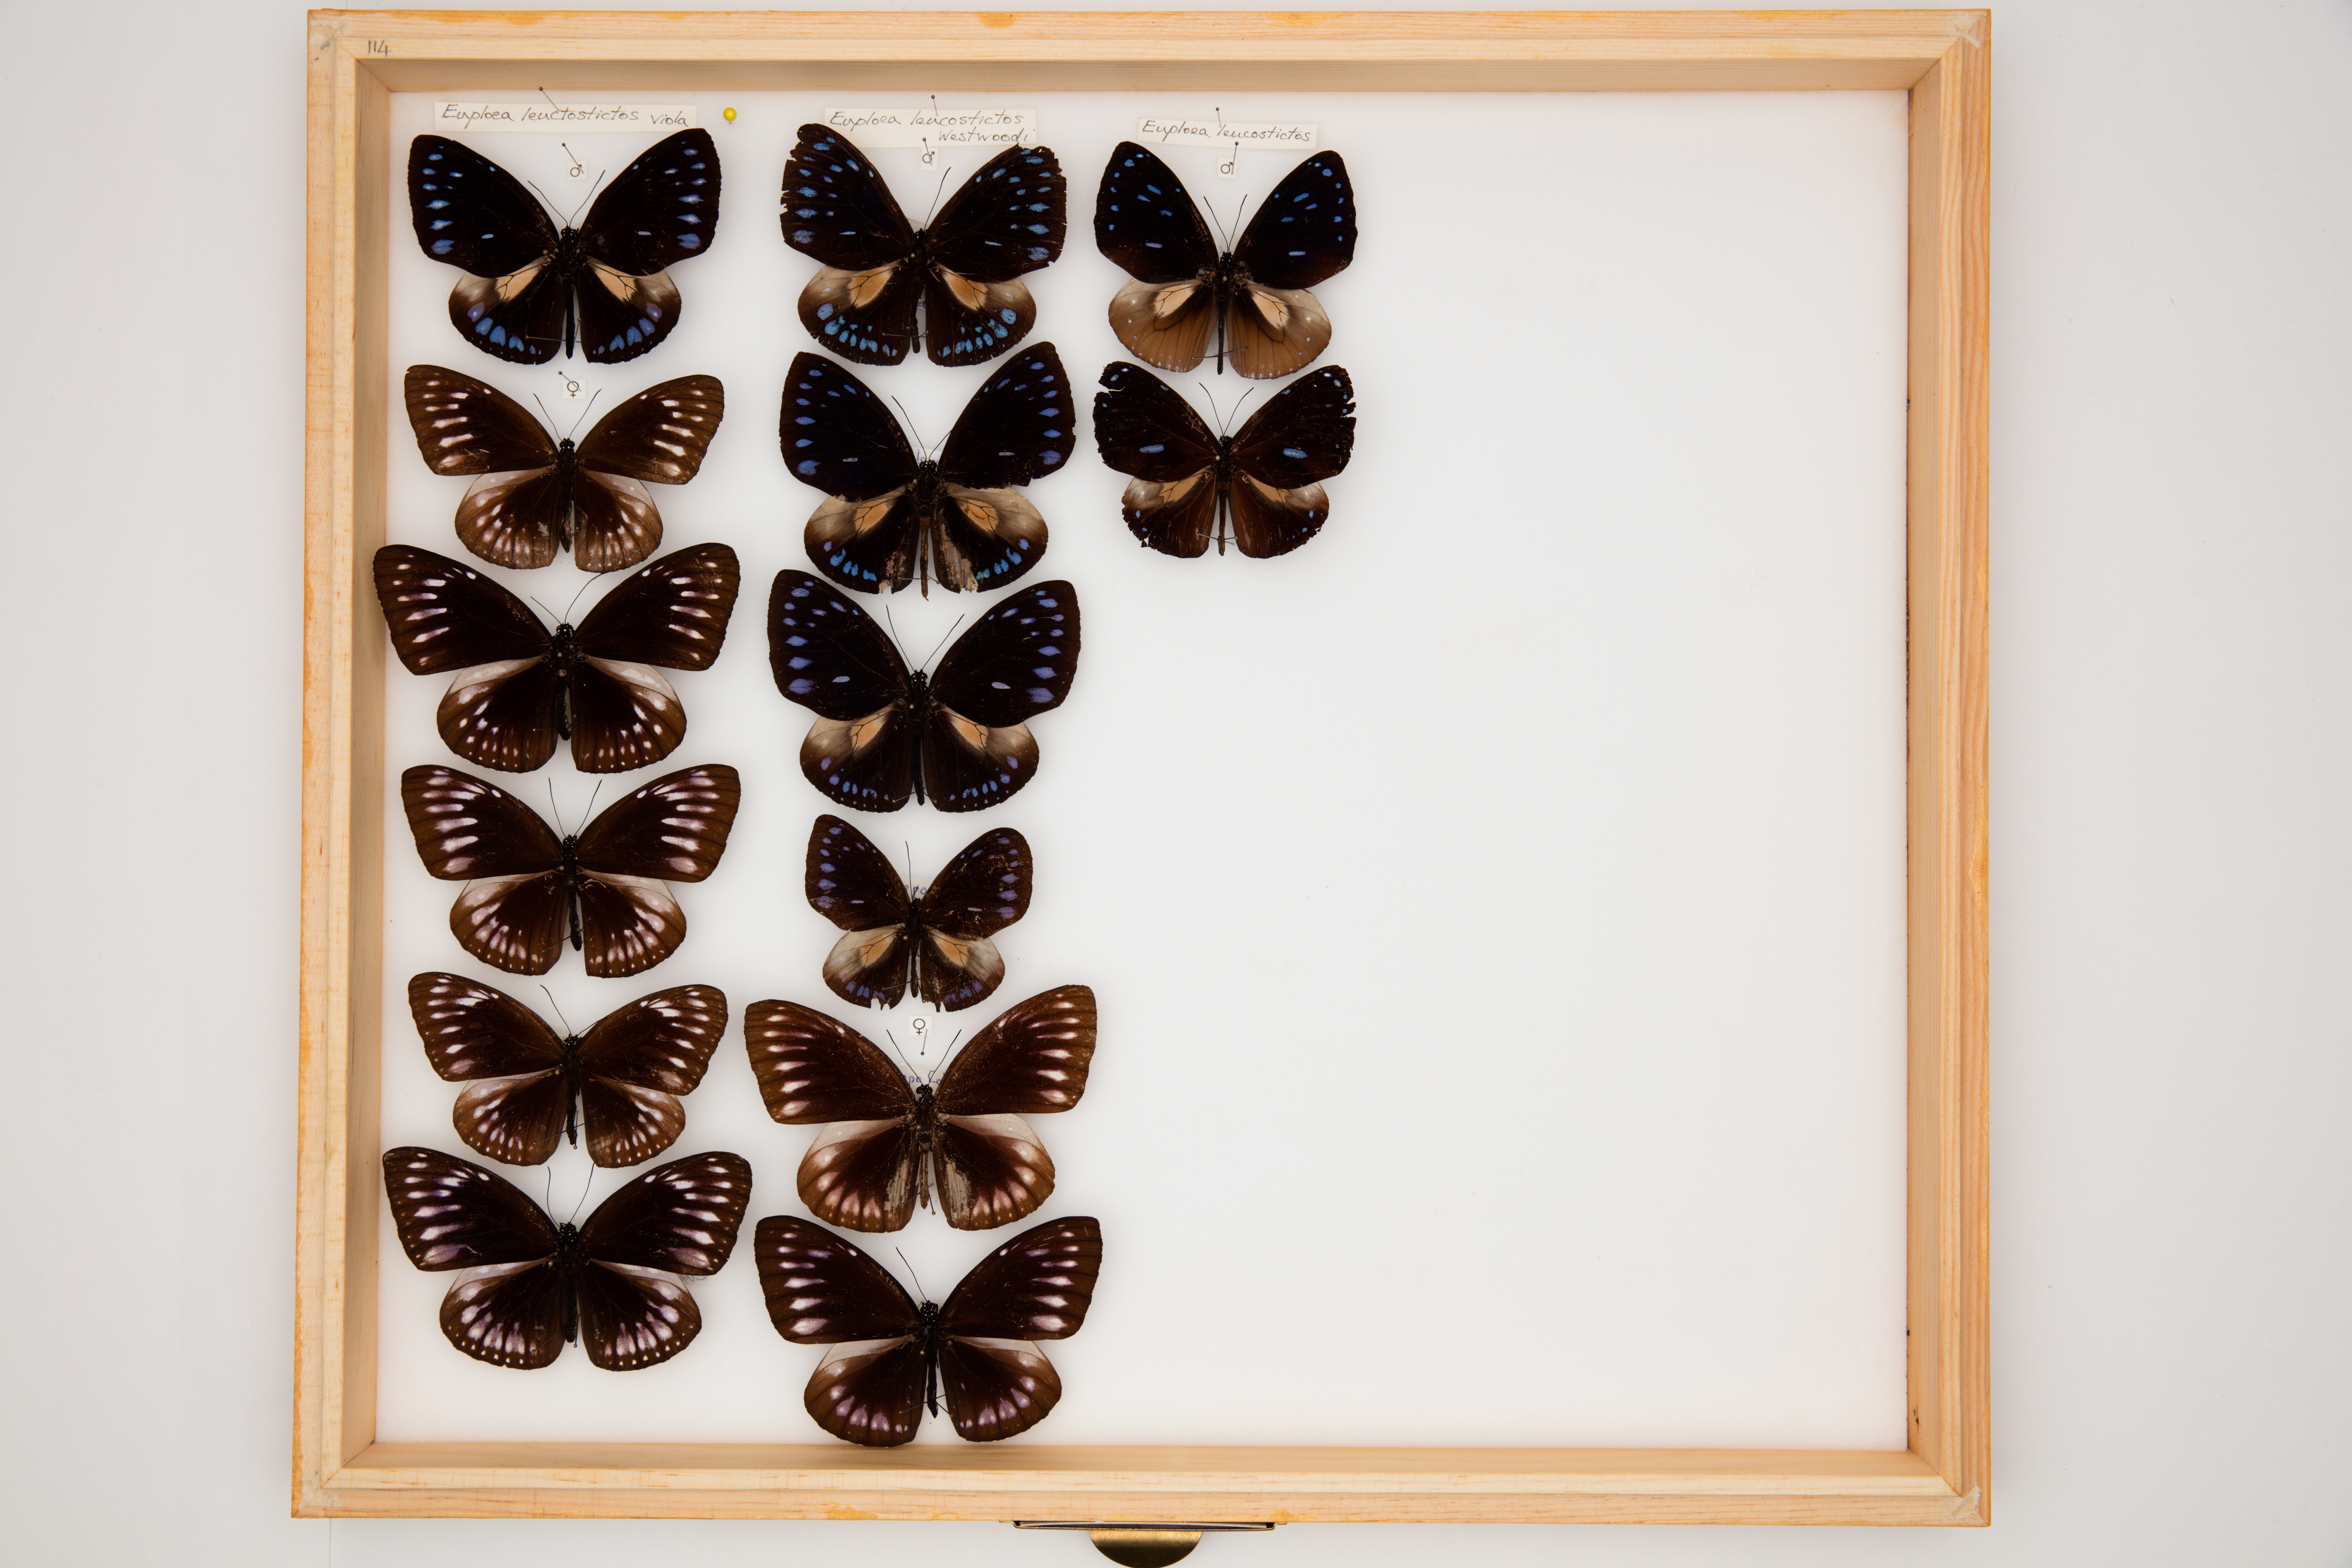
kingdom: Animalia
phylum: Arthropoda
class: Insecta
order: Lepidoptera
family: Nymphalidae
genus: Euploea
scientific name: Euploea leucostictos
